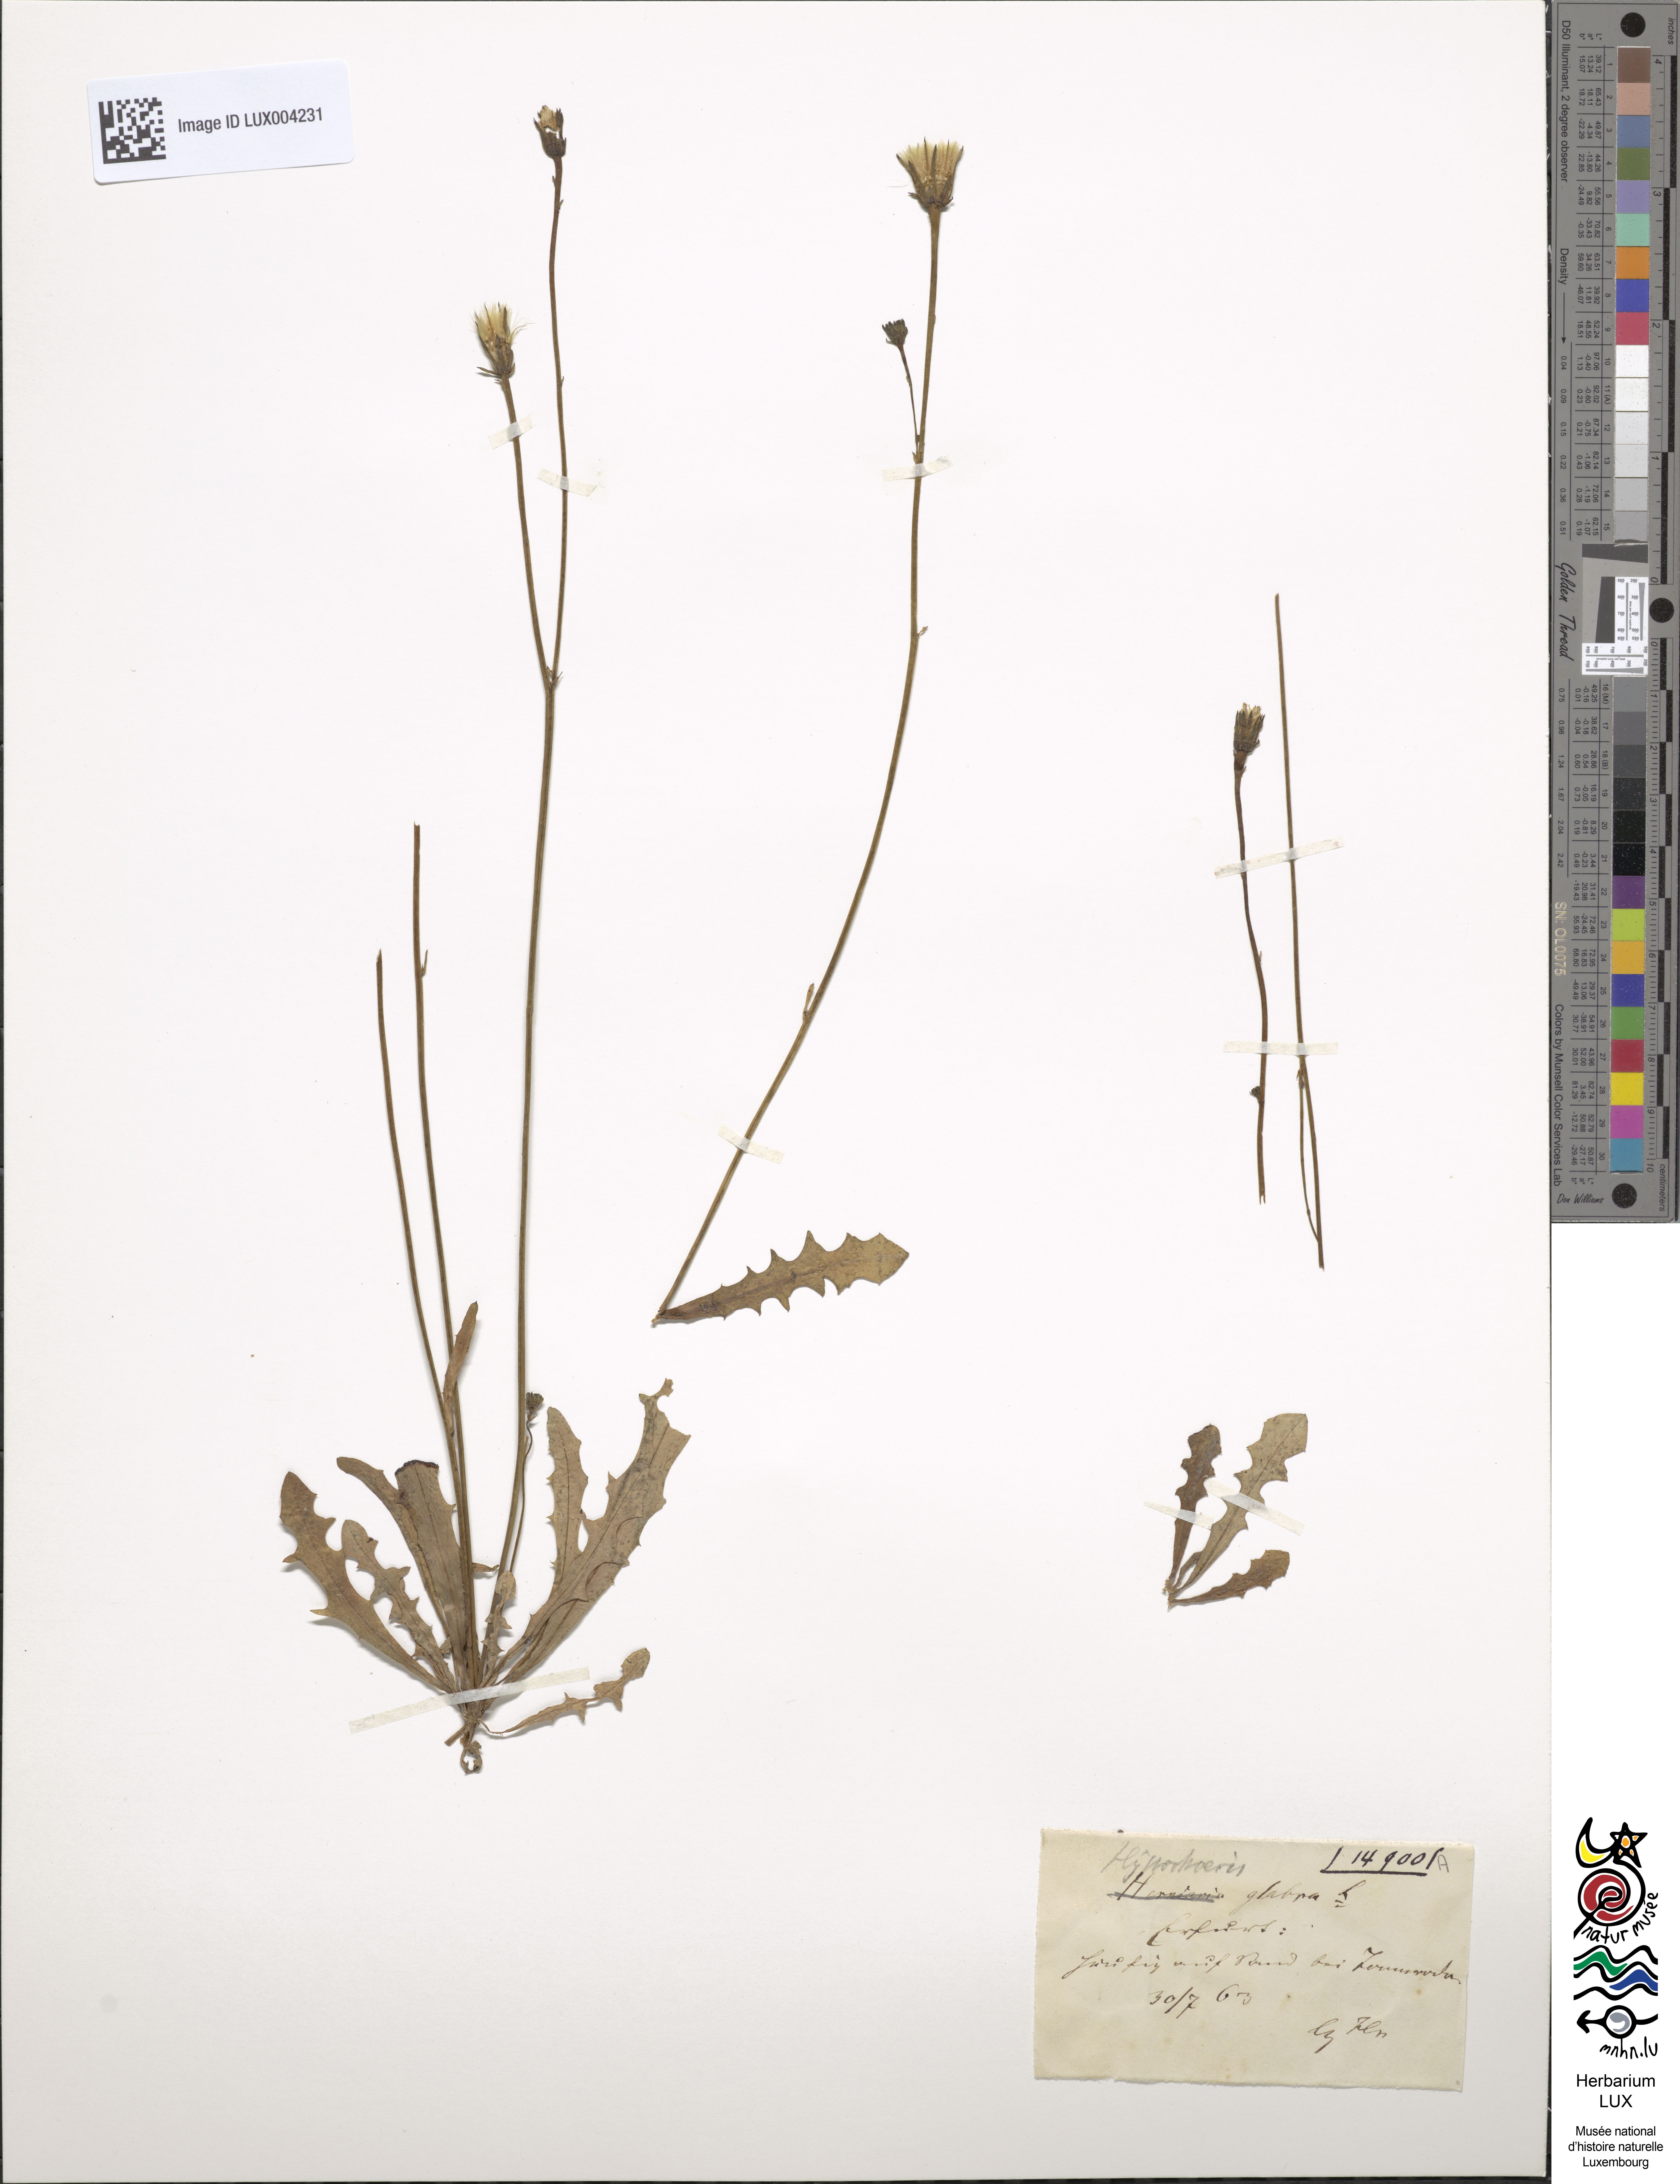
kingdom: Plantae
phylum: Tracheophyta
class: Magnoliopsida
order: Asterales
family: Asteraceae
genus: Hypochoeris
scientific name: Hypochoeris glabra
